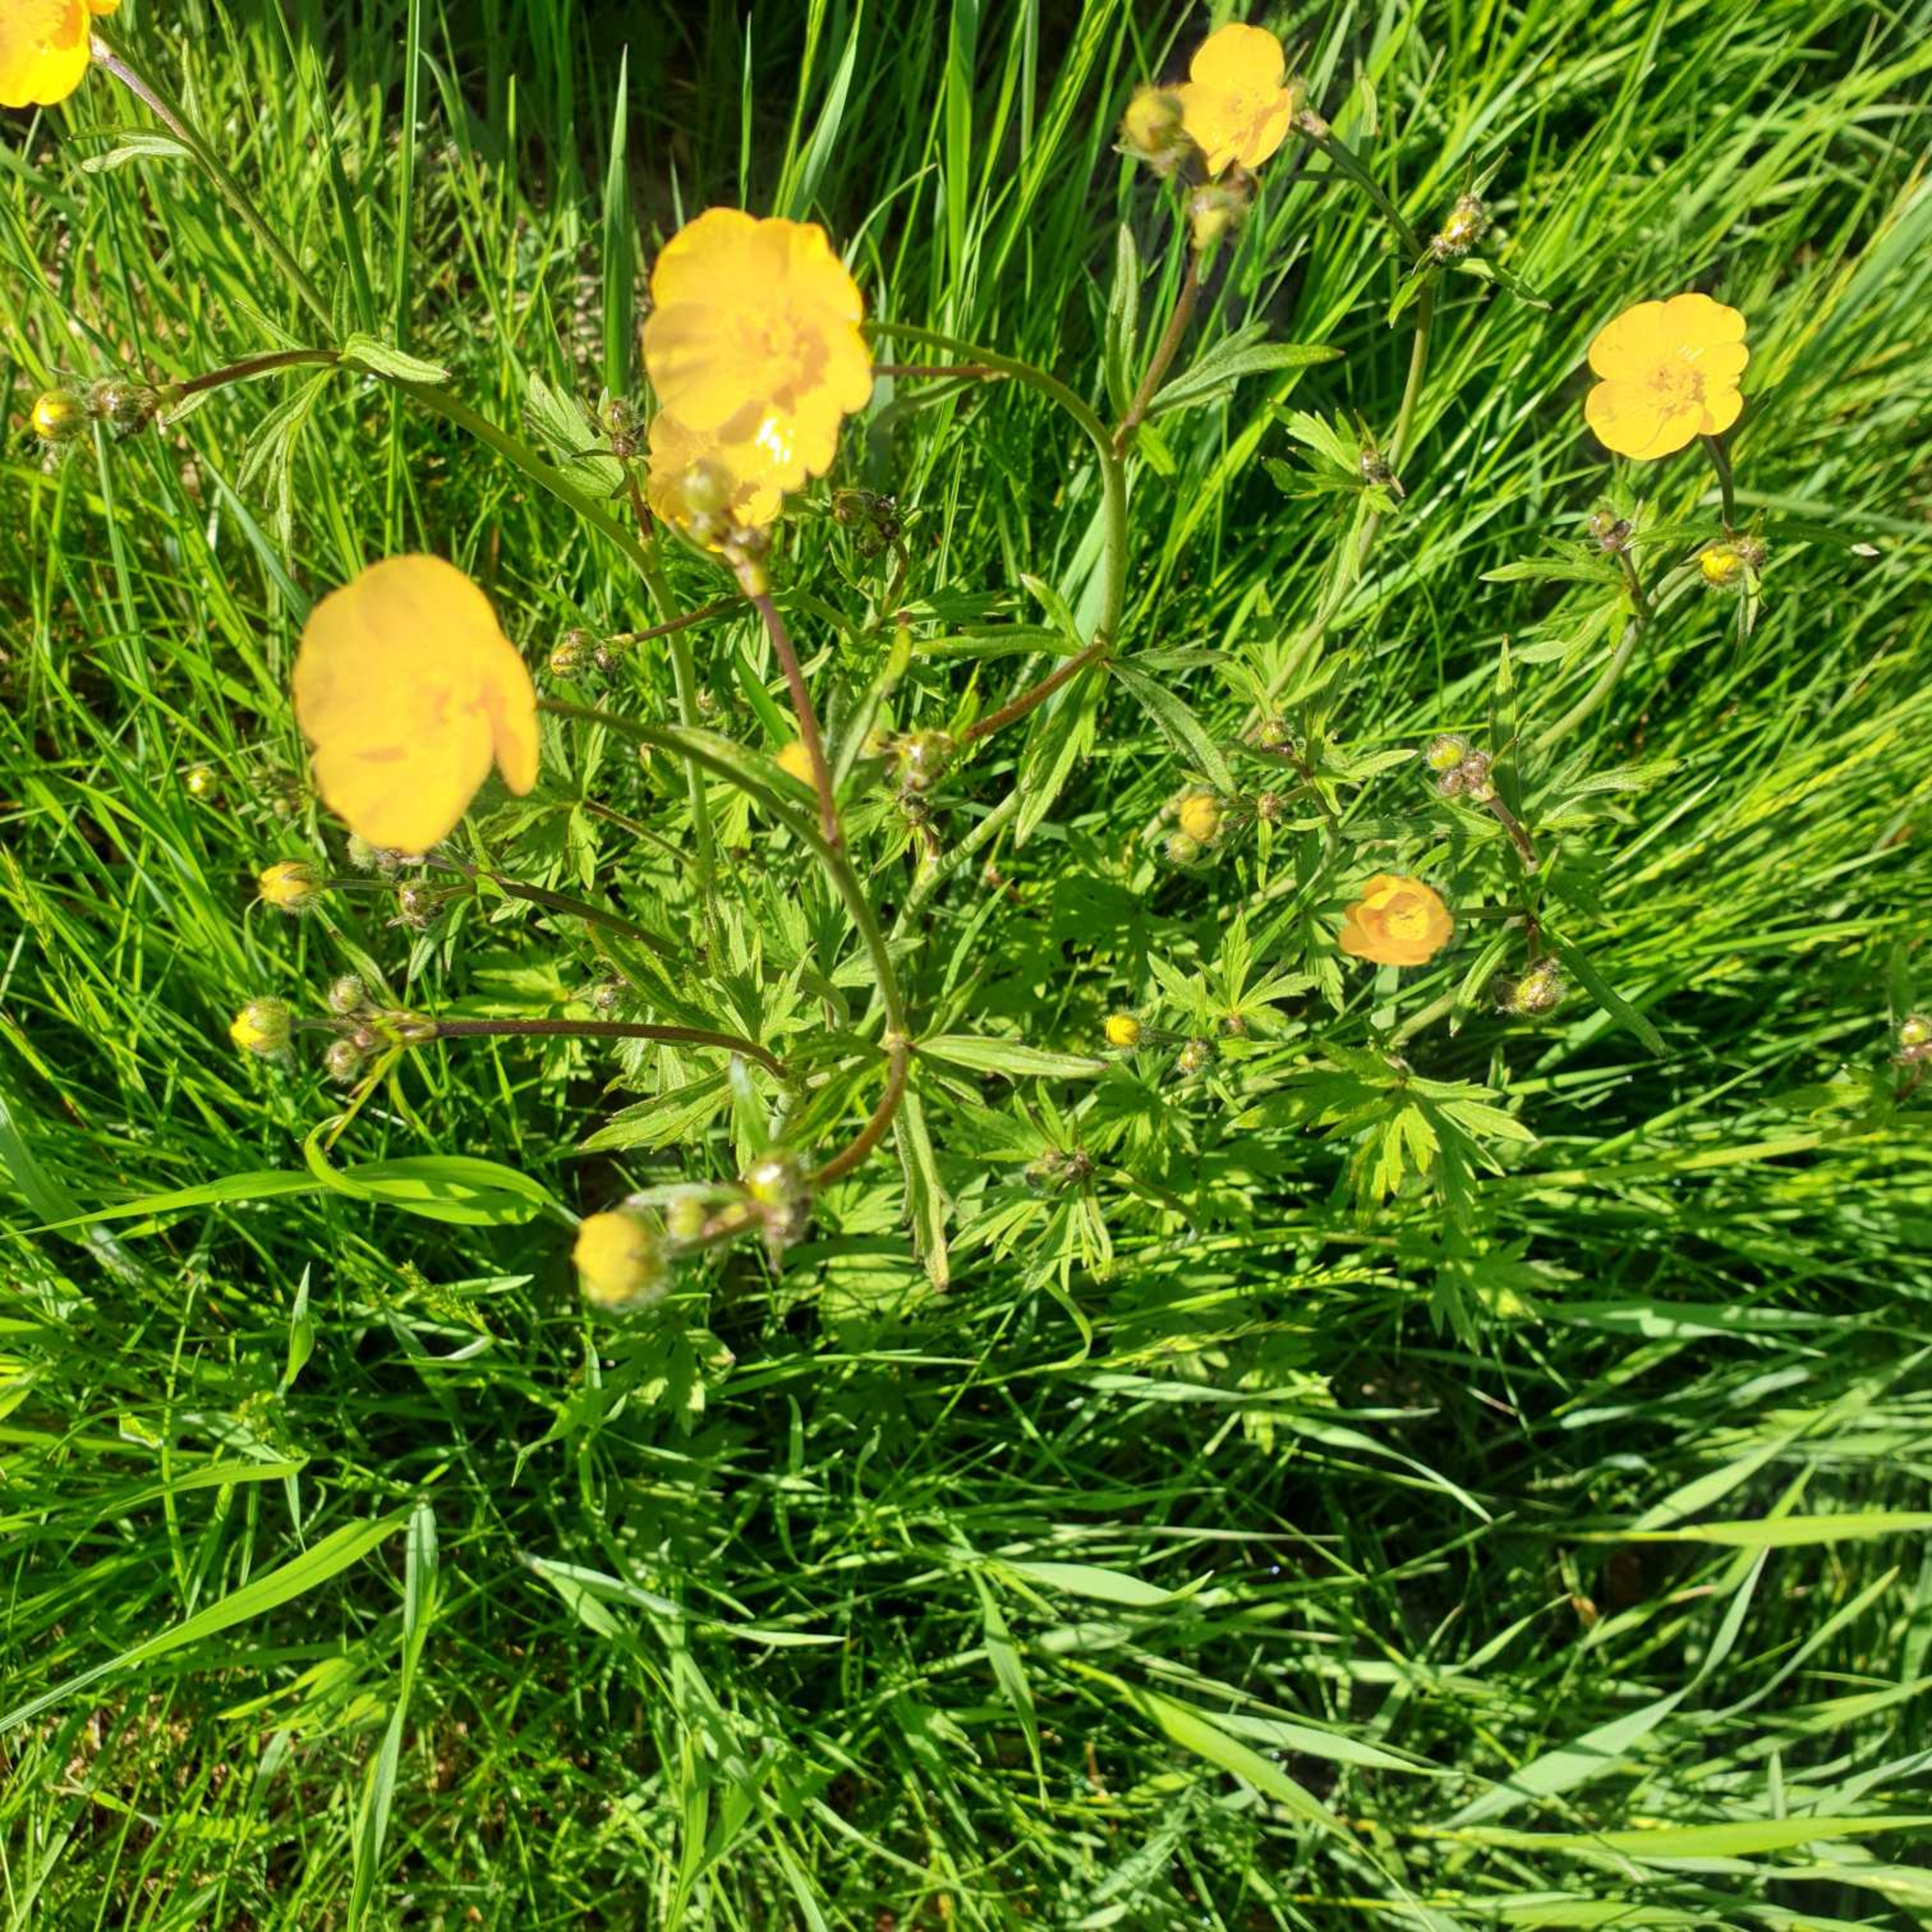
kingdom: Plantae
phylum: Tracheophyta
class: Magnoliopsida
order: Ranunculales
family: Ranunculaceae
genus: Ranunculus
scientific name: Ranunculus acris
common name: Bidende ranunkel
